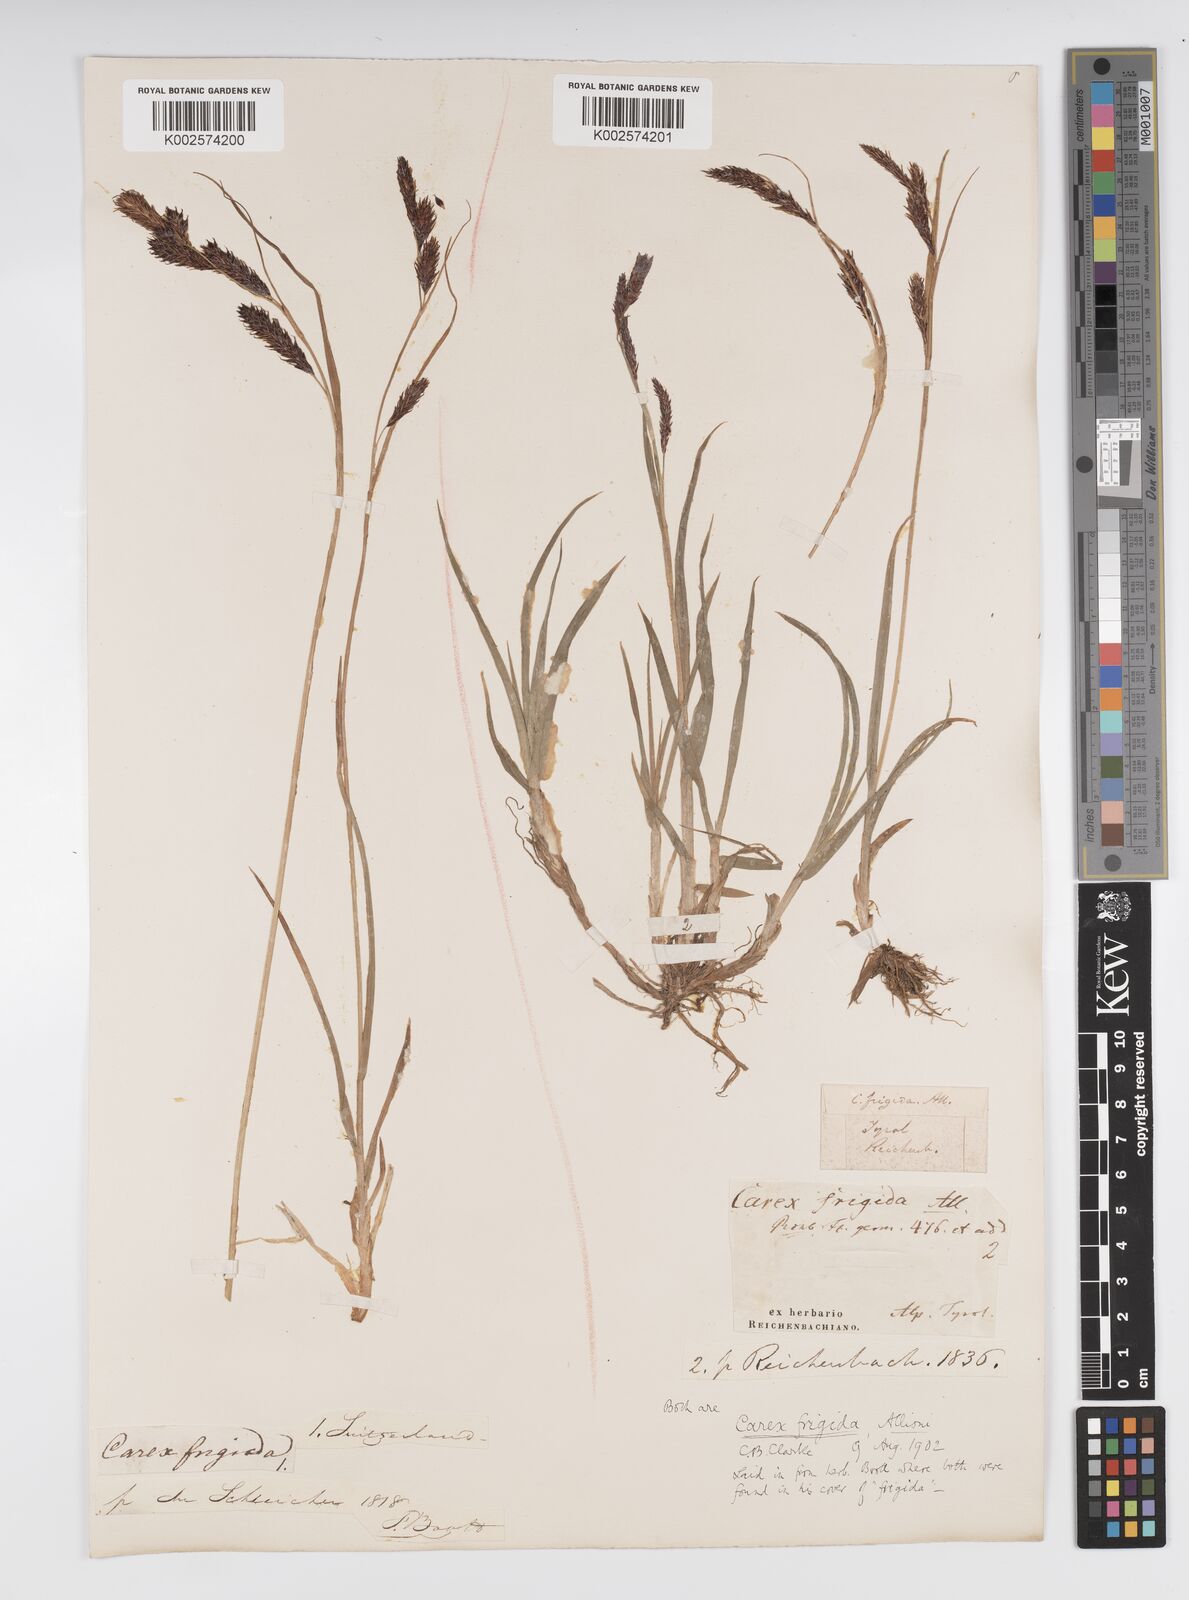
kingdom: Plantae
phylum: Tracheophyta
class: Liliopsida
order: Poales
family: Cyperaceae
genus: Carex
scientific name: Carex frigida
